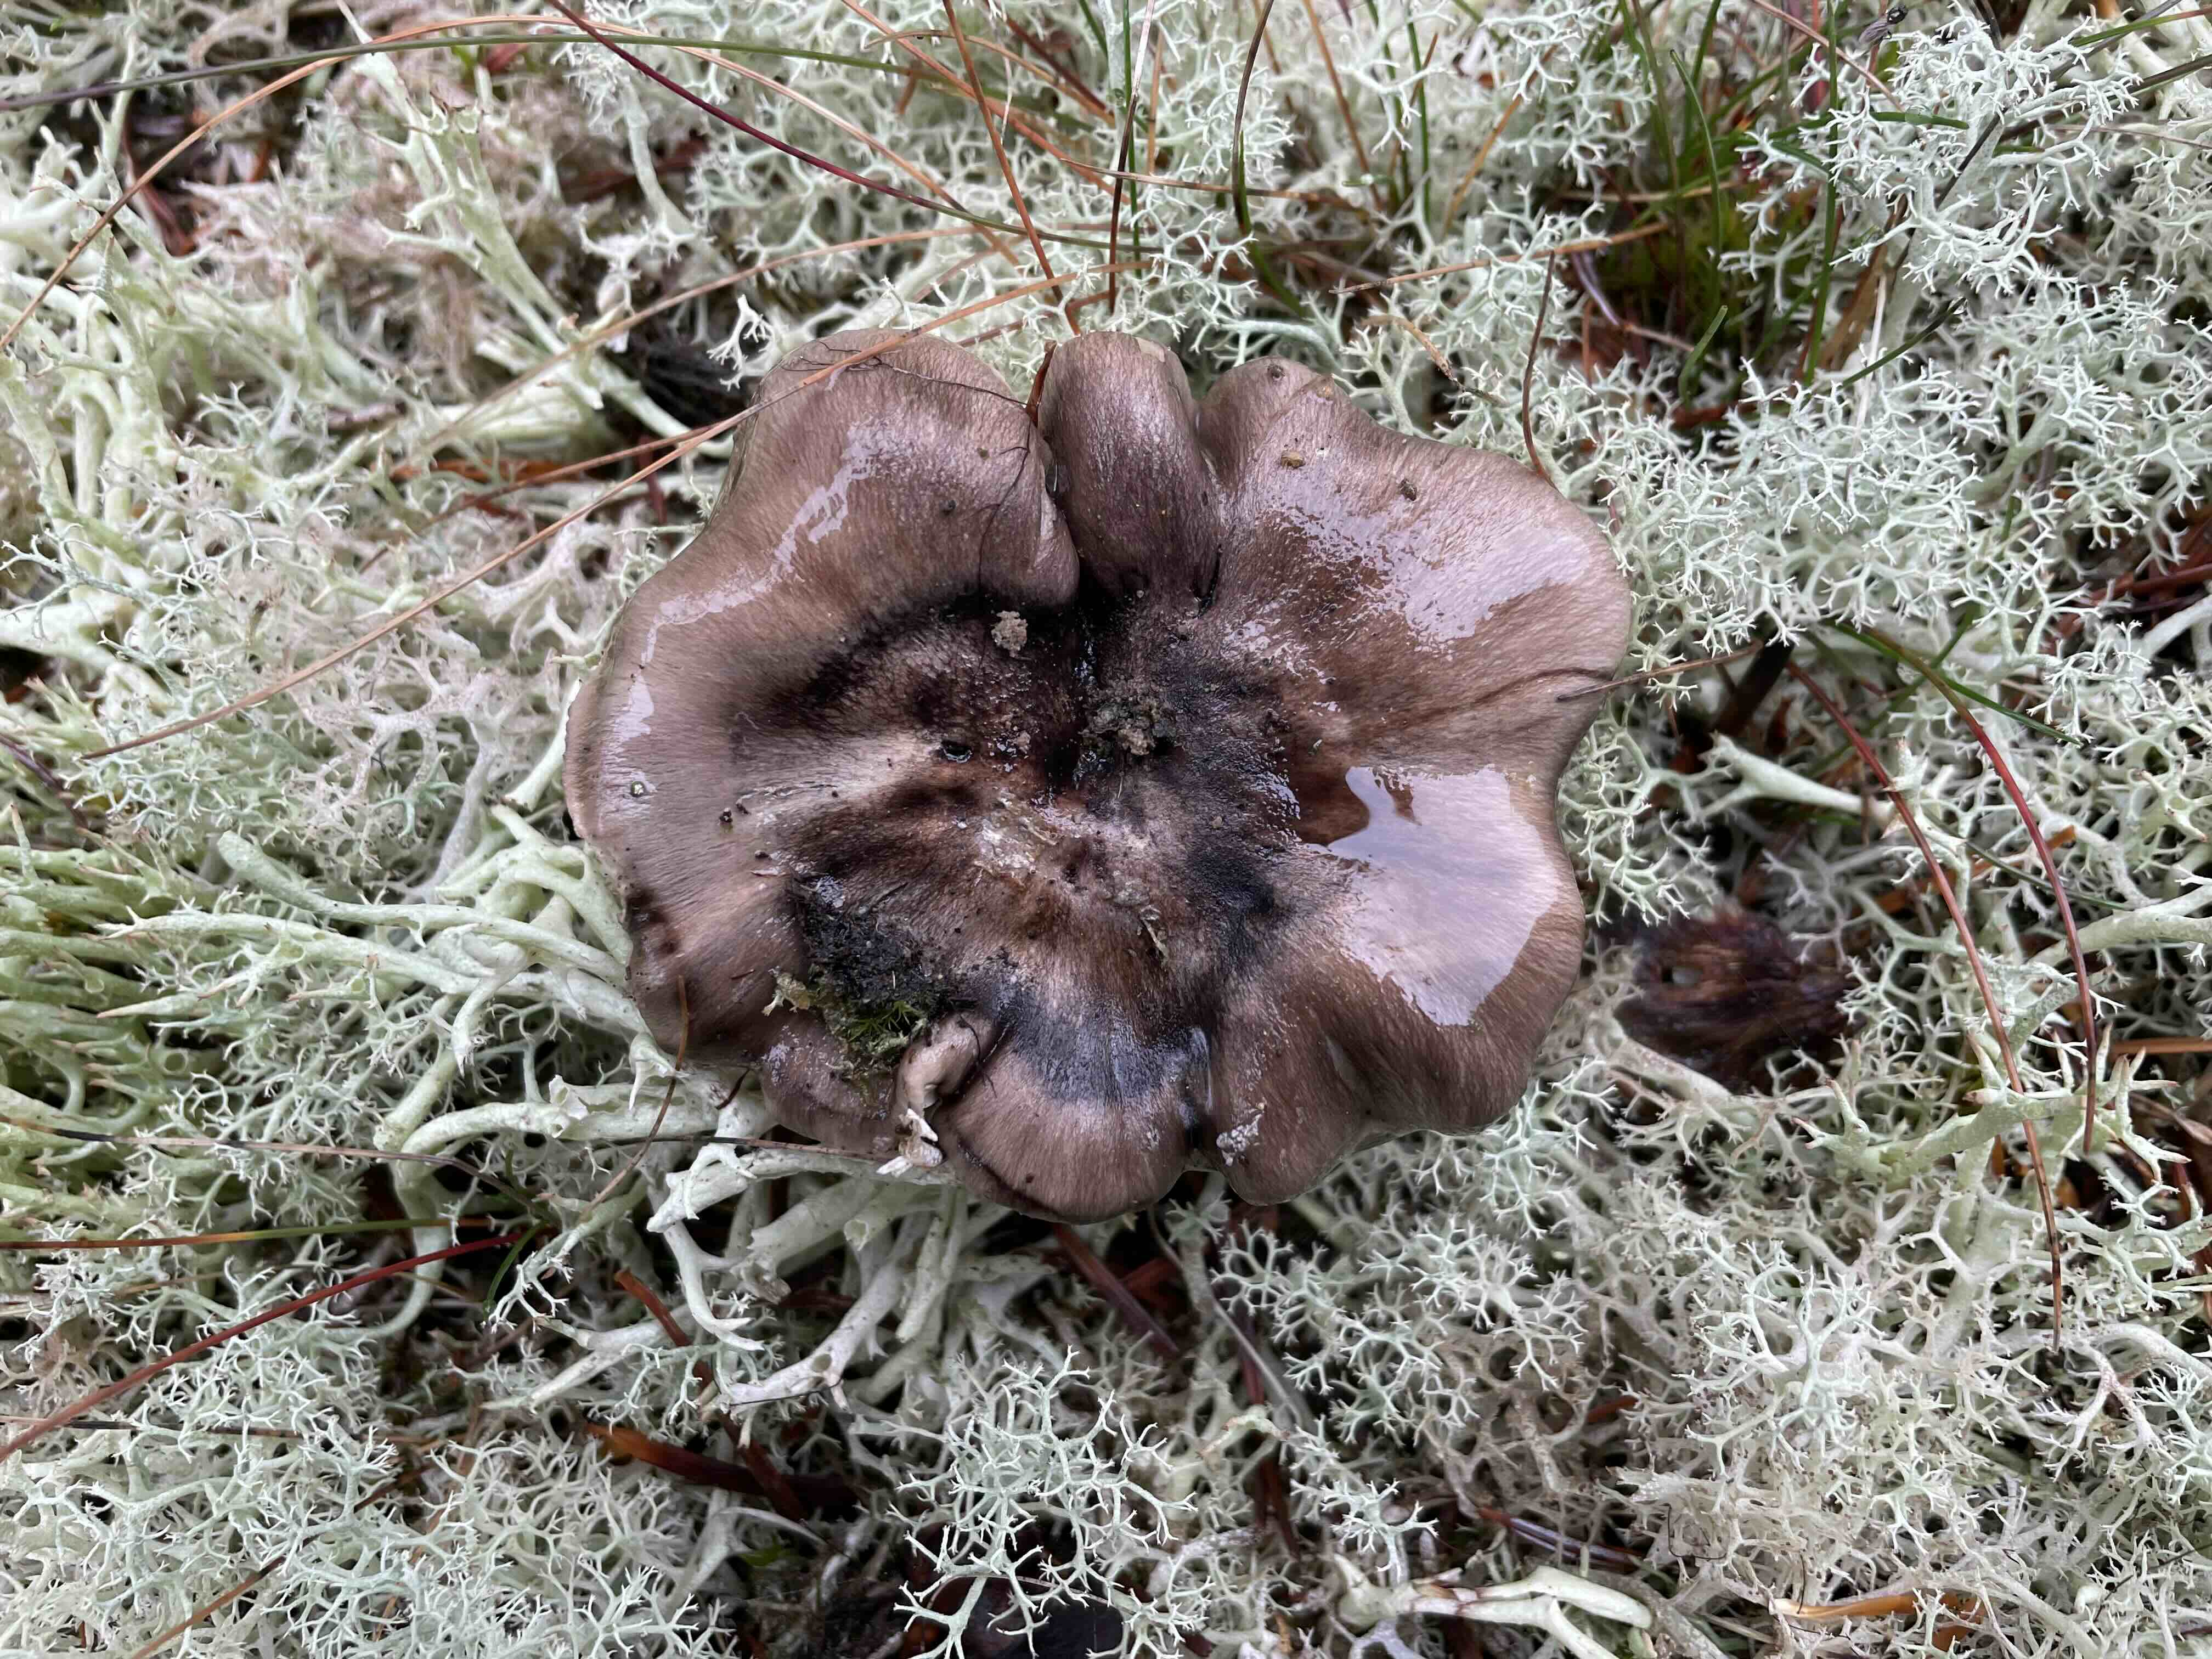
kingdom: Fungi
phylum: Basidiomycota
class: Agaricomycetes
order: Agaricales
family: Tricholomataceae
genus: Tricholoma
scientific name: Tricholoma portentosum
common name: grå ridderhat
